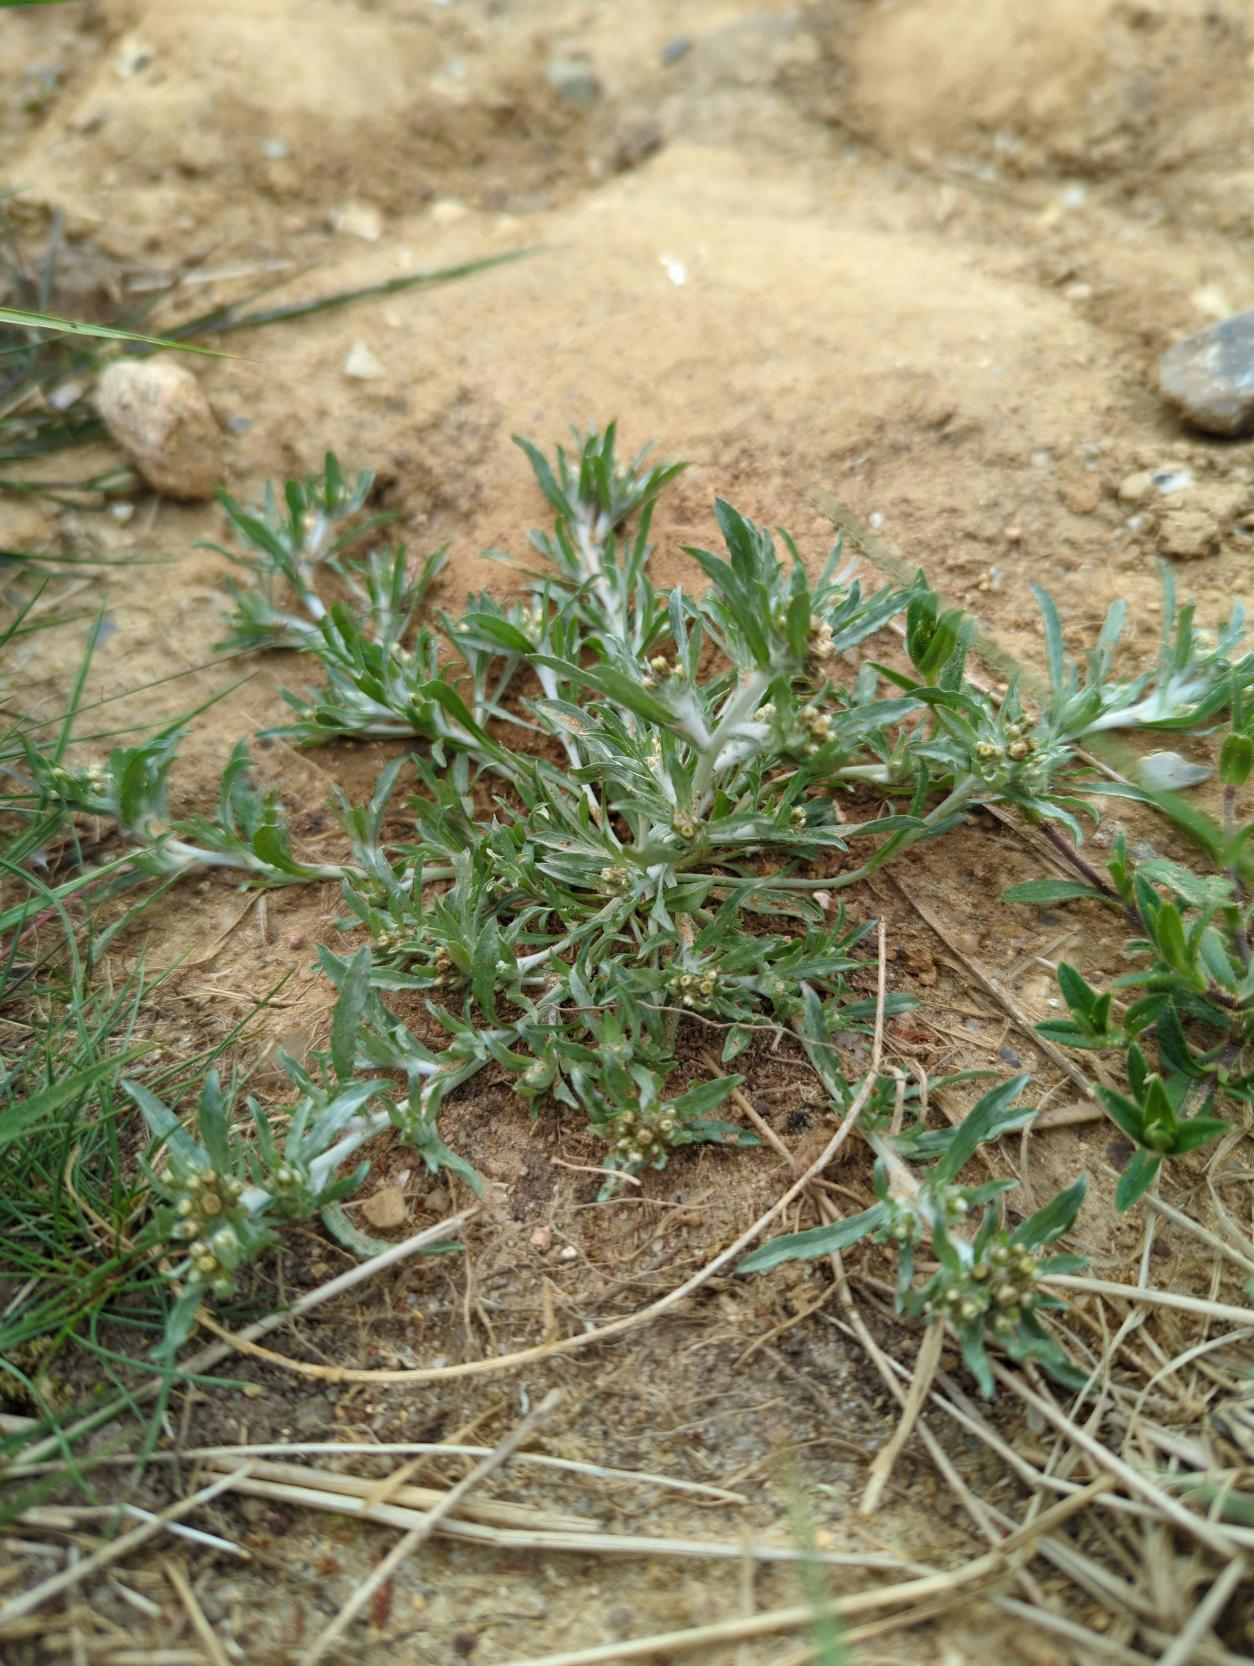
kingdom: Plantae
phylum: Tracheophyta
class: Magnoliopsida
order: Asterales
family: Asteraceae
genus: Gnaphalium
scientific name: Gnaphalium uliginosum
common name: Sump-evighedsblomst
